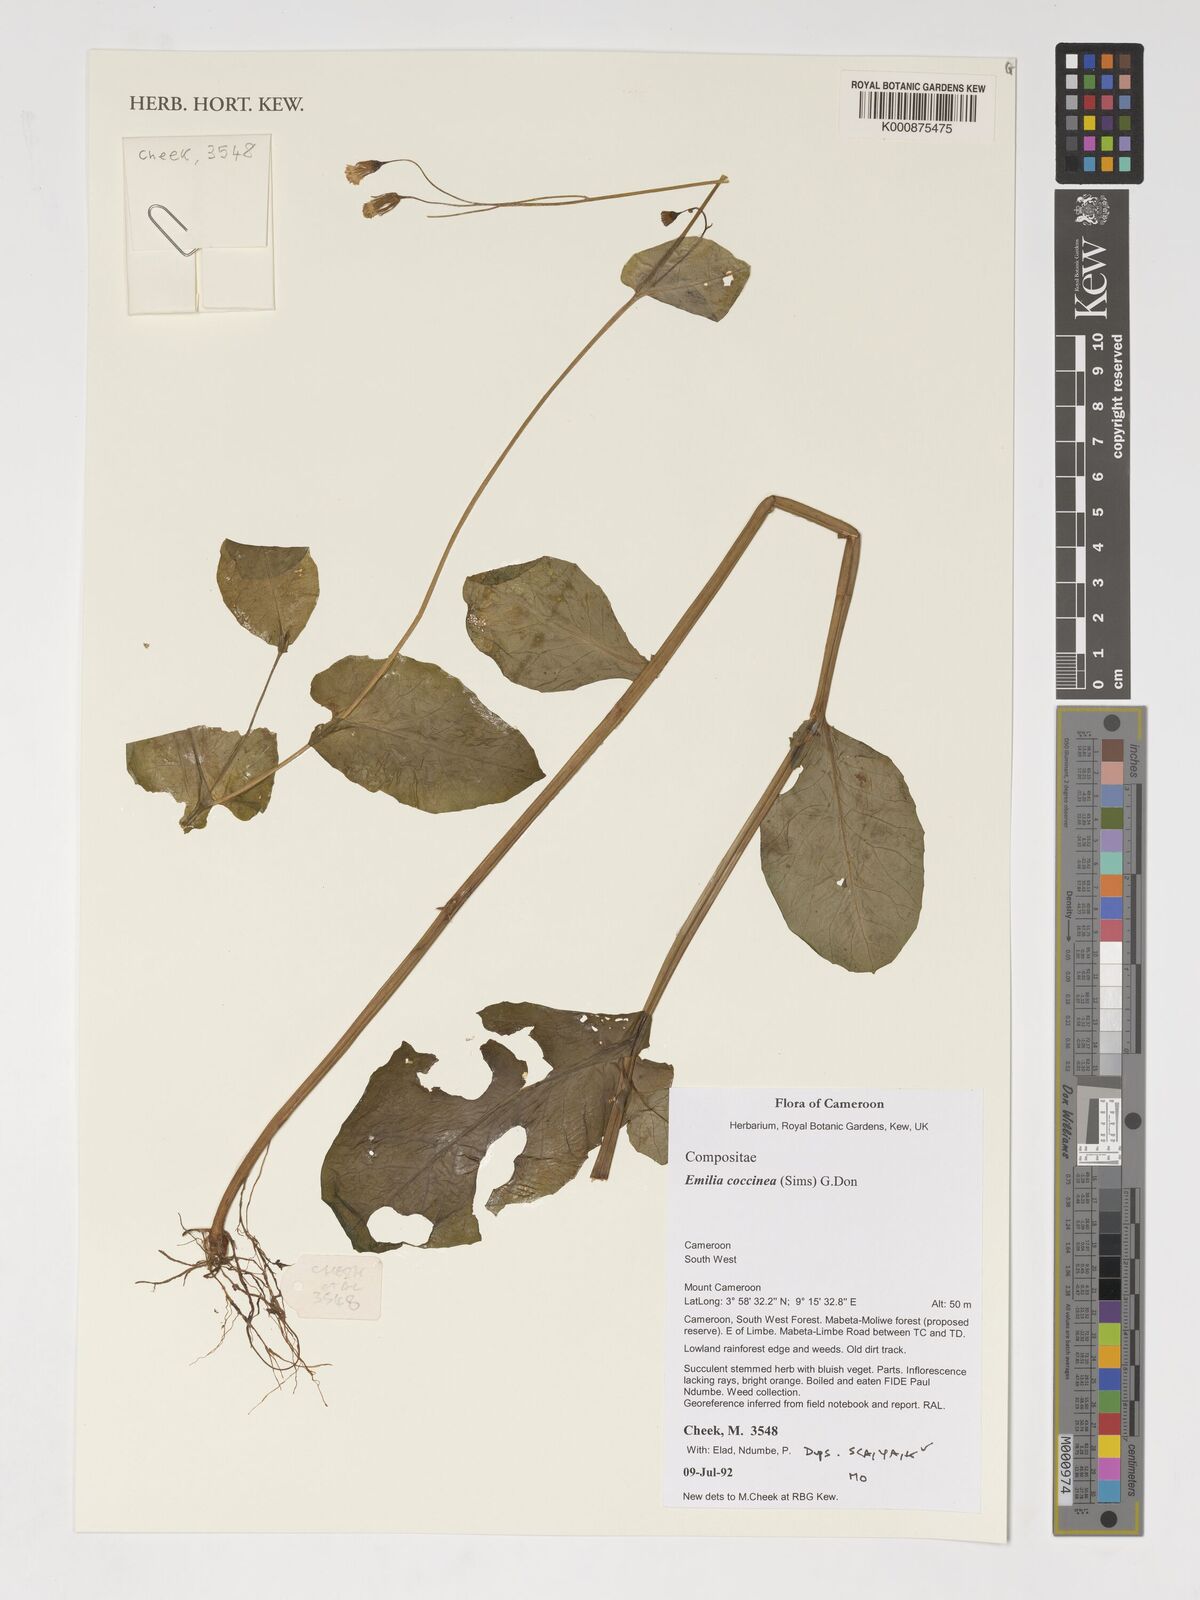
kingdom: Plantae
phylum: Tracheophyta
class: Magnoliopsida
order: Asterales
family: Asteraceae
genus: Emilia
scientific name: Emilia coccinea
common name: Scarlet tasselflower
